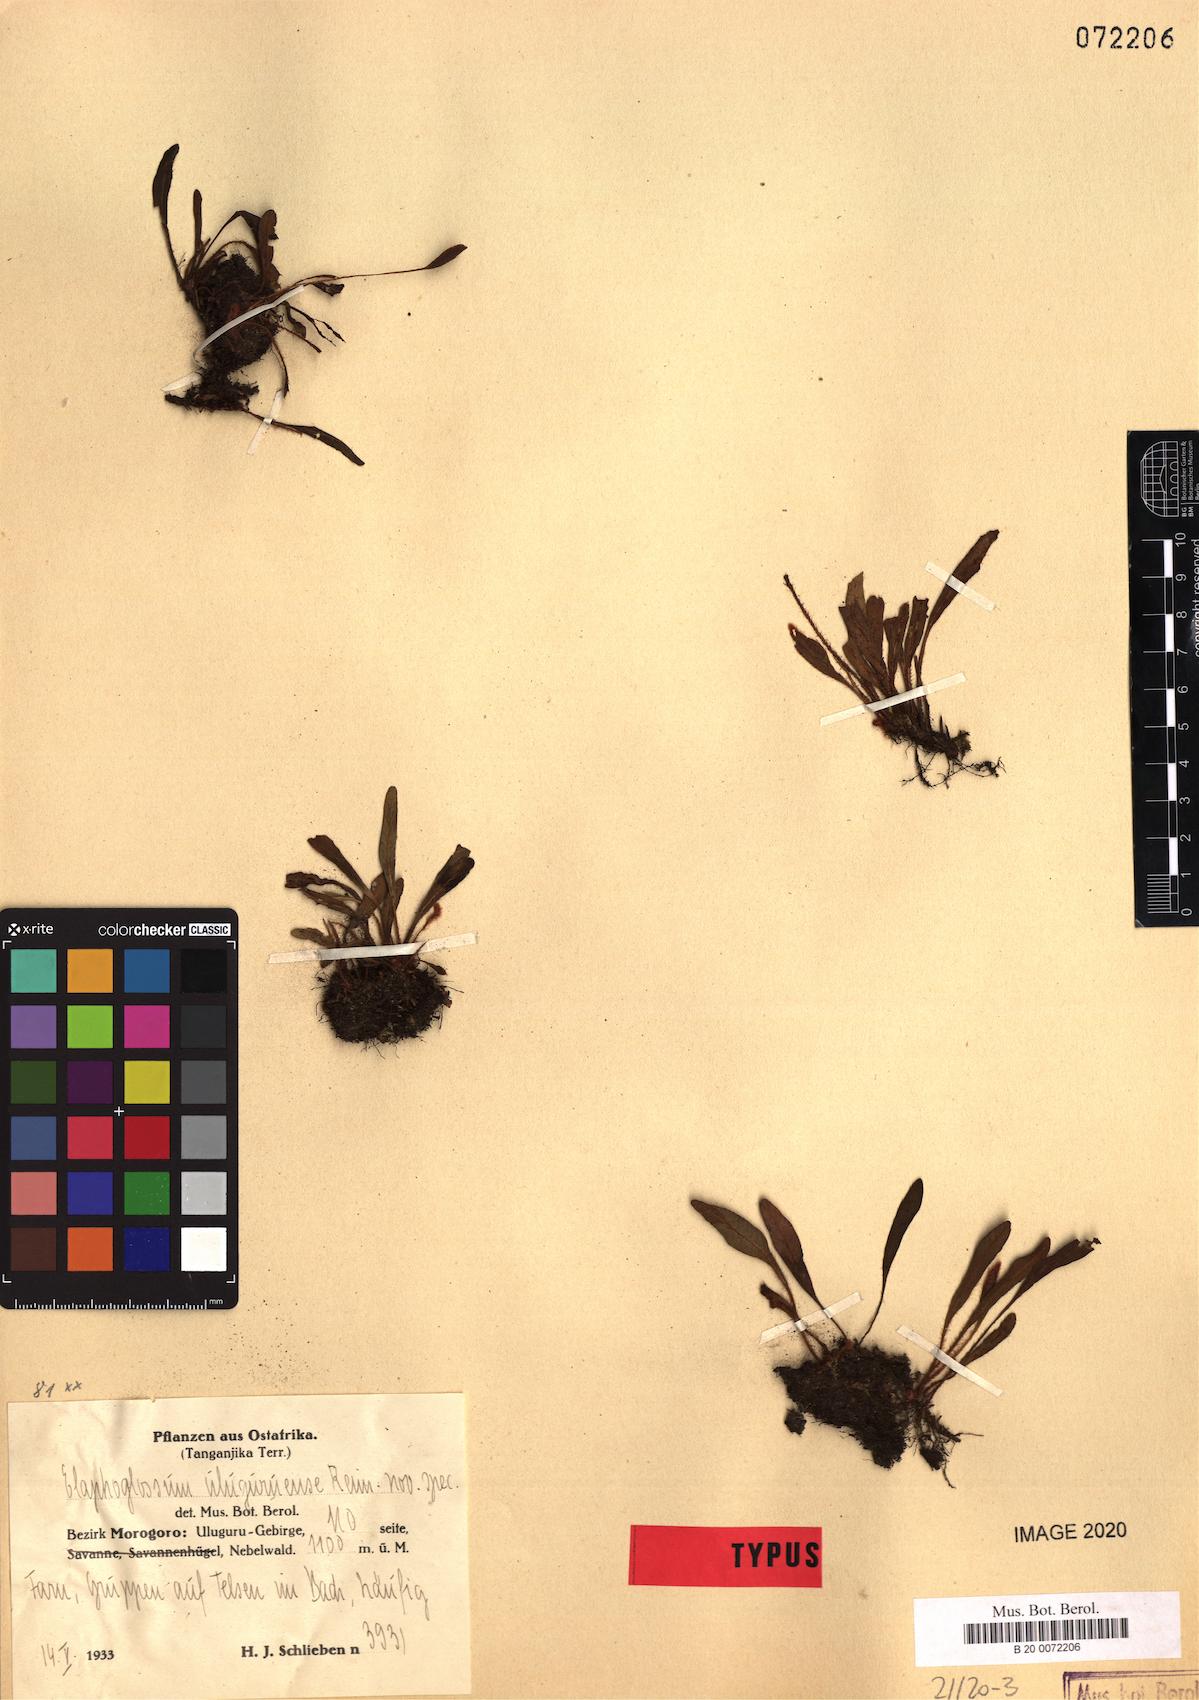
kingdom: Plantae
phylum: Tracheophyta
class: Polypodiopsida
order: Polypodiales
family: Dryopteridaceae
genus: Elaphoglossum
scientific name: Elaphoglossum spatulatum
